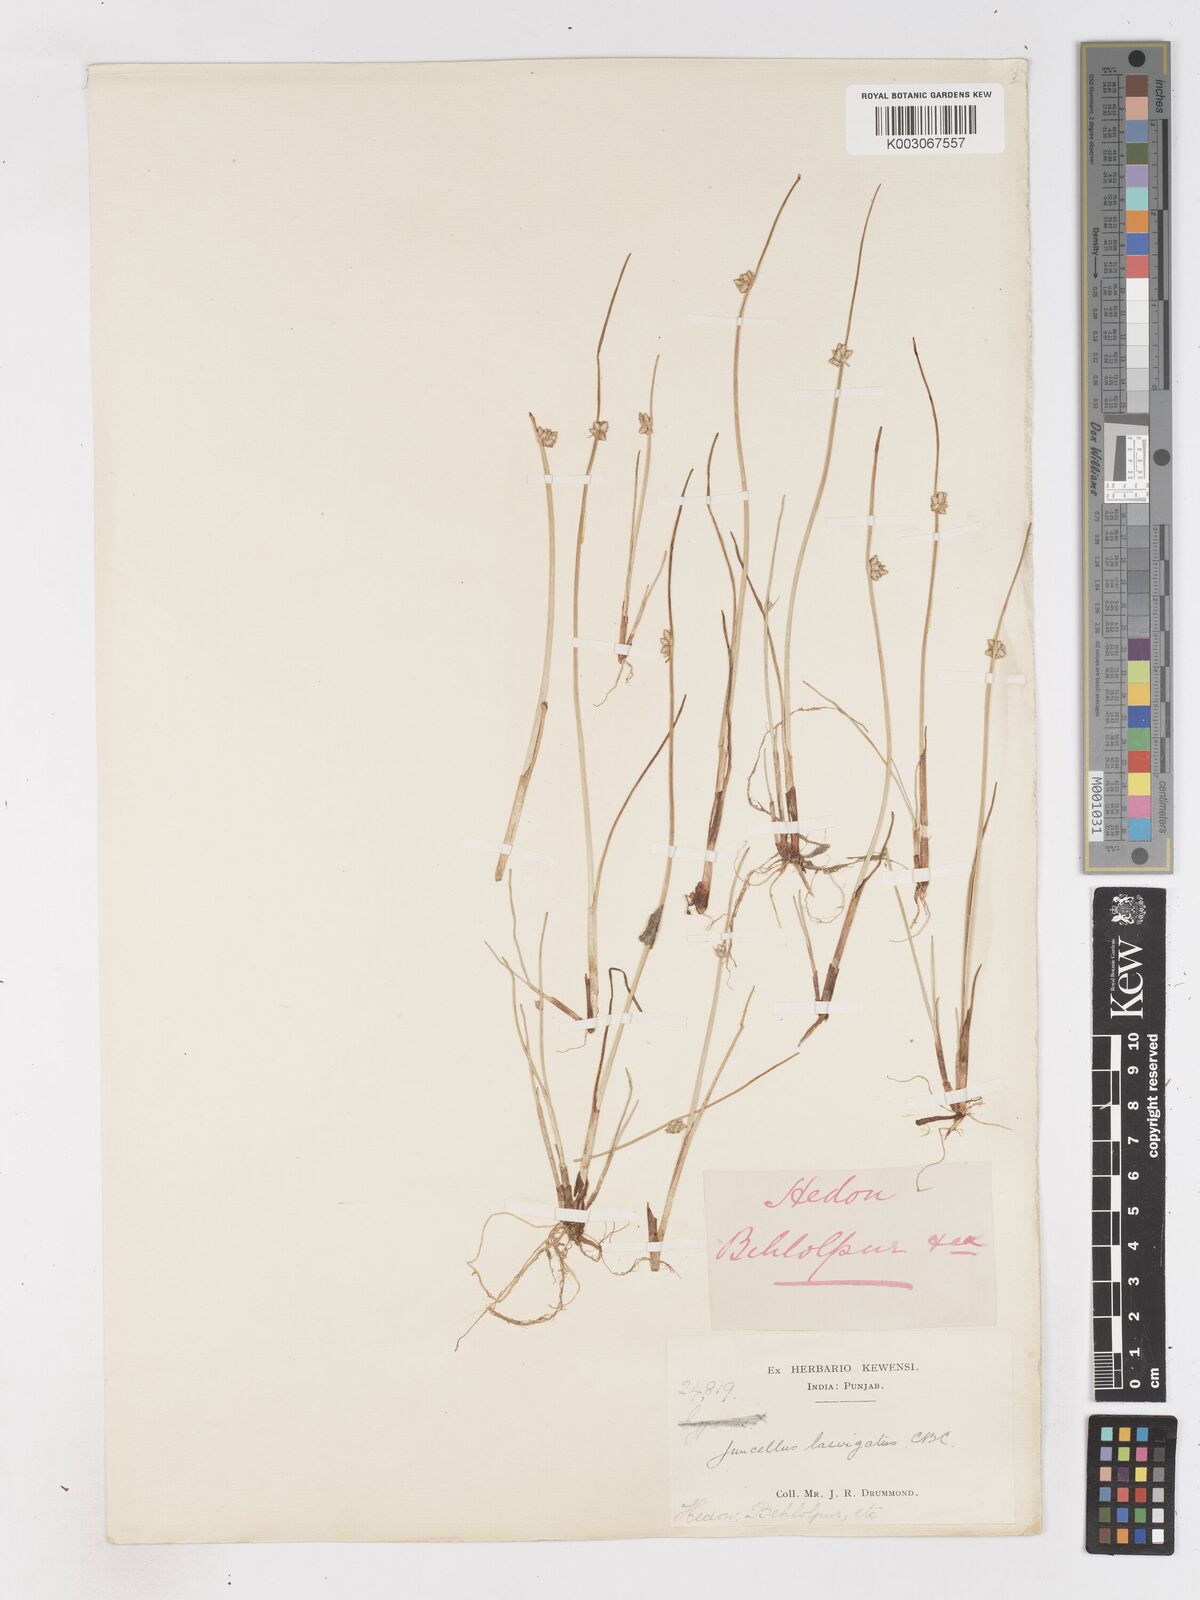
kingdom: Plantae
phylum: Tracheophyta
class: Liliopsida
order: Poales
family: Cyperaceae
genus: Cyperus
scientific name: Cyperus laevigatus
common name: Smooth flat sedge
